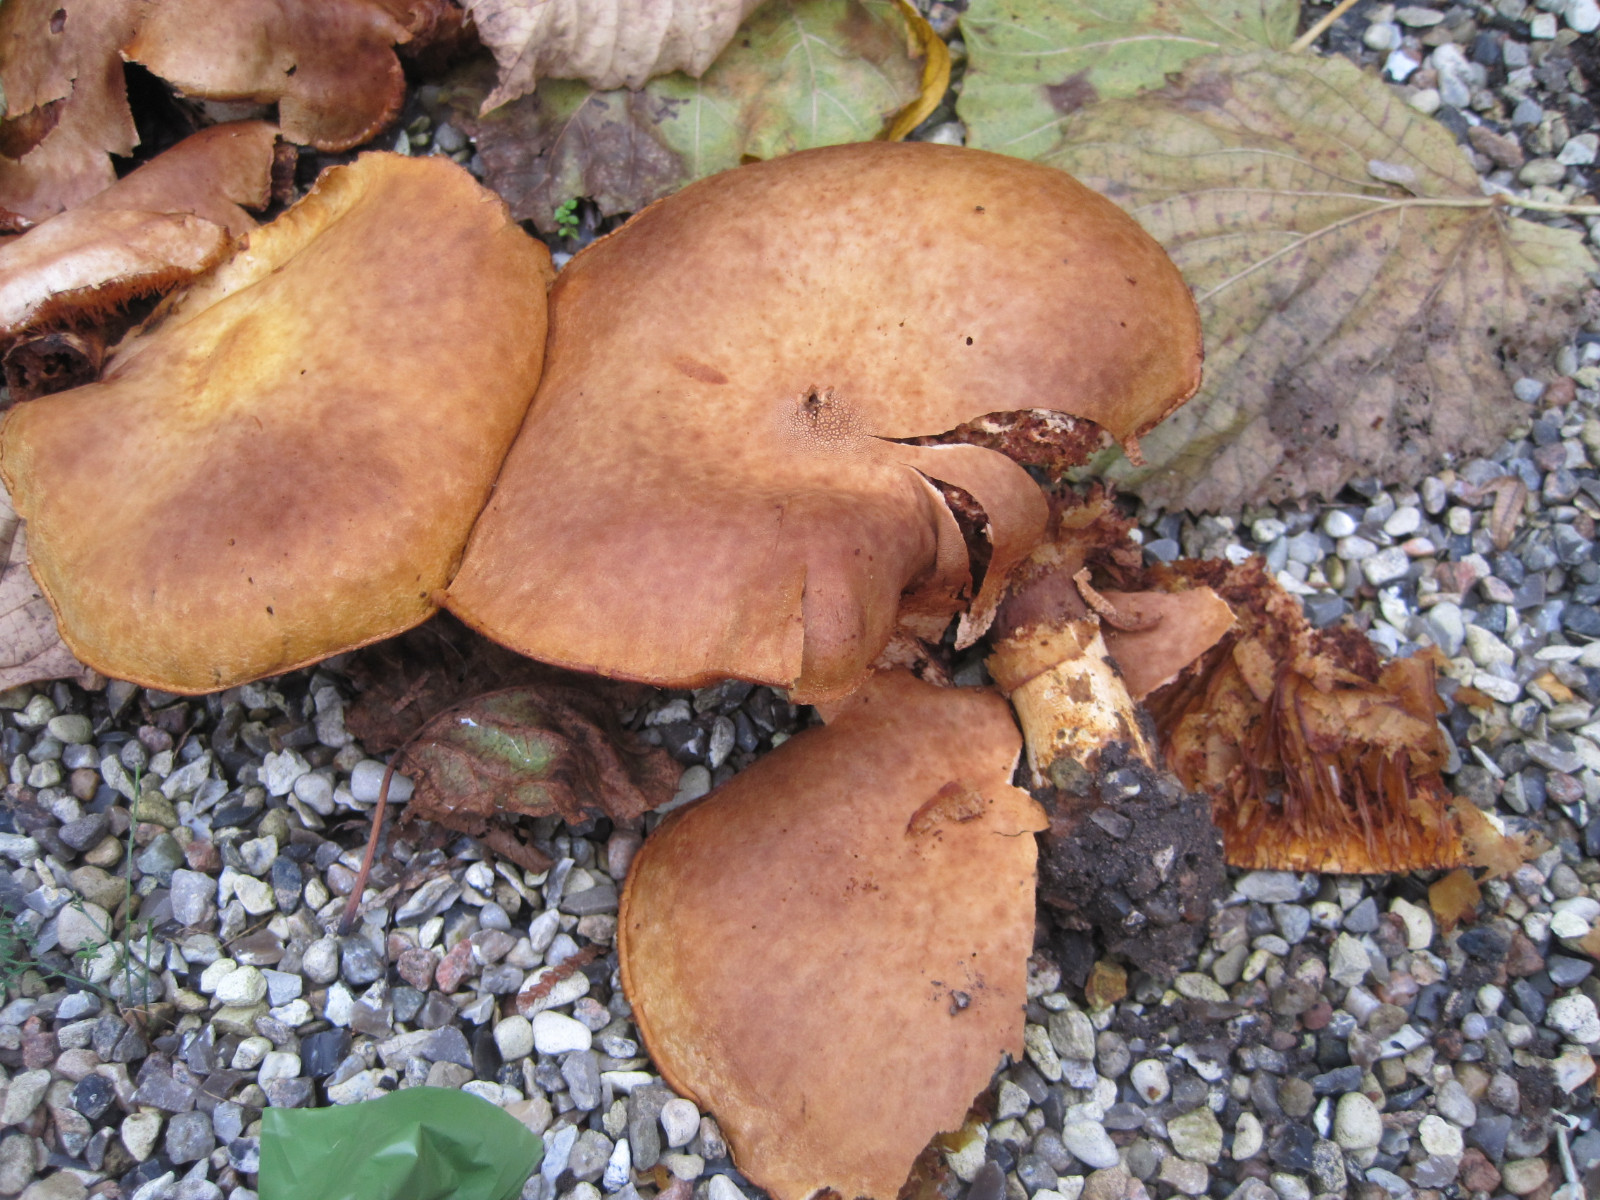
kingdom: Fungi
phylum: Basidiomycota
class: Agaricomycetes
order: Agaricales
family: Hymenogastraceae
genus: Gymnopilus
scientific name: Gymnopilus spectabilis
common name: fibret flammehat
